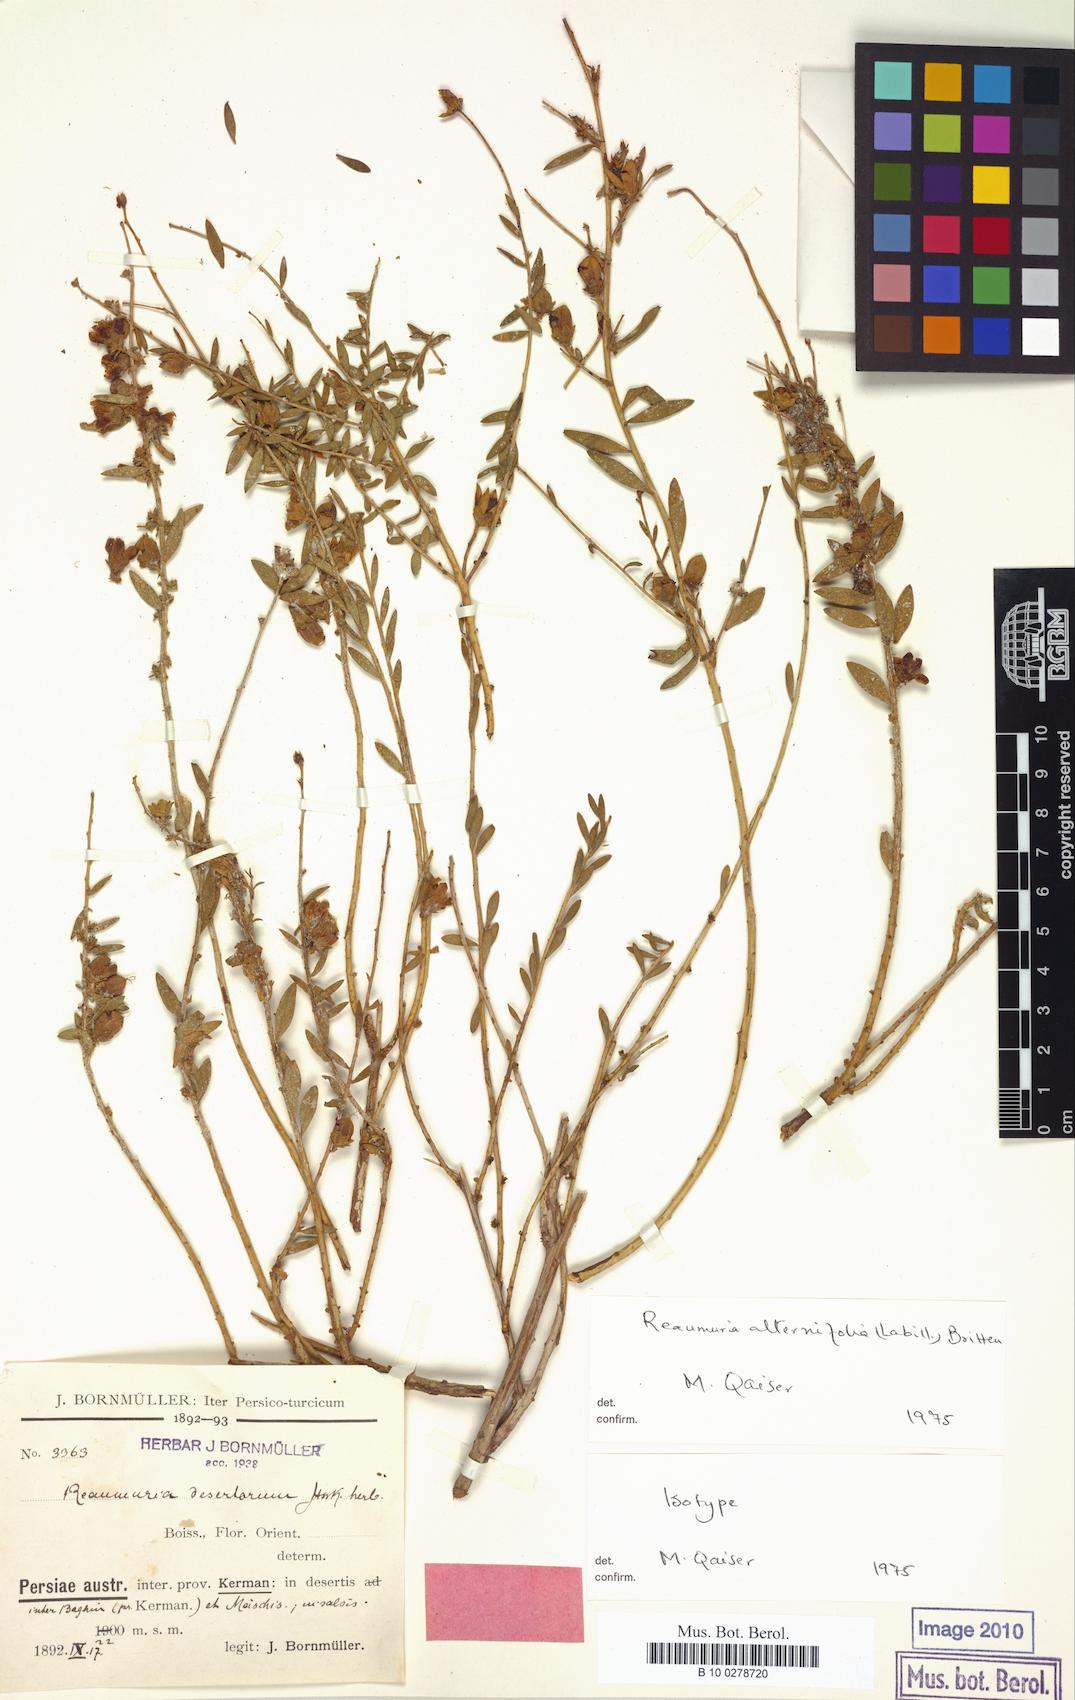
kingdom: Plantae
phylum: Tracheophyta
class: Magnoliopsida
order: Caryophyllales
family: Tamaricaceae
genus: Reaumuria
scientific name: Reaumuria alternifolia
